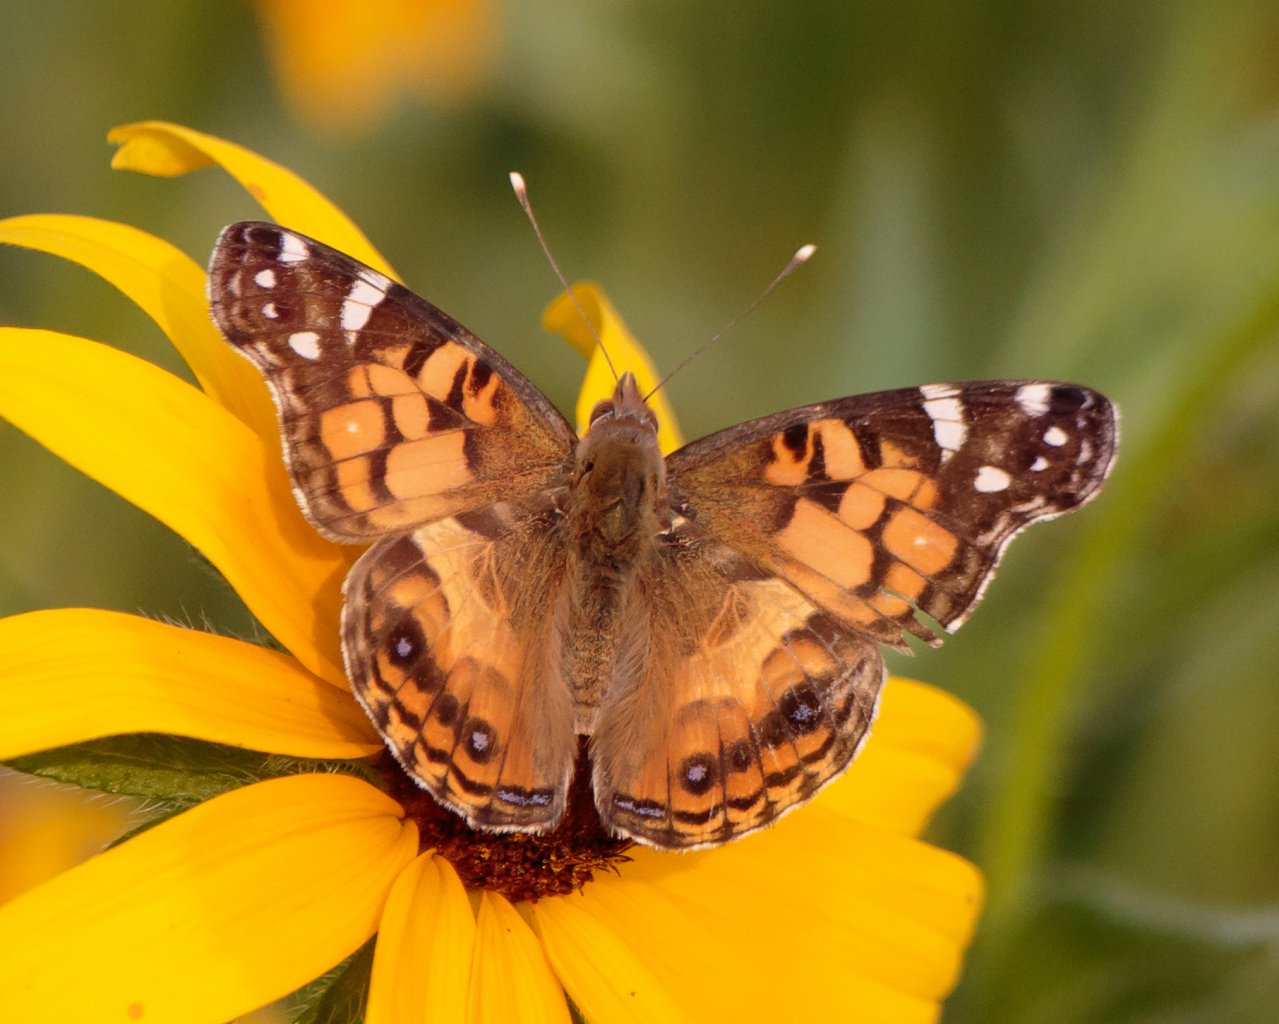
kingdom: Animalia
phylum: Arthropoda
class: Insecta
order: Lepidoptera
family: Nymphalidae
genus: Vanessa
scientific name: Vanessa virginiensis
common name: American Lady
